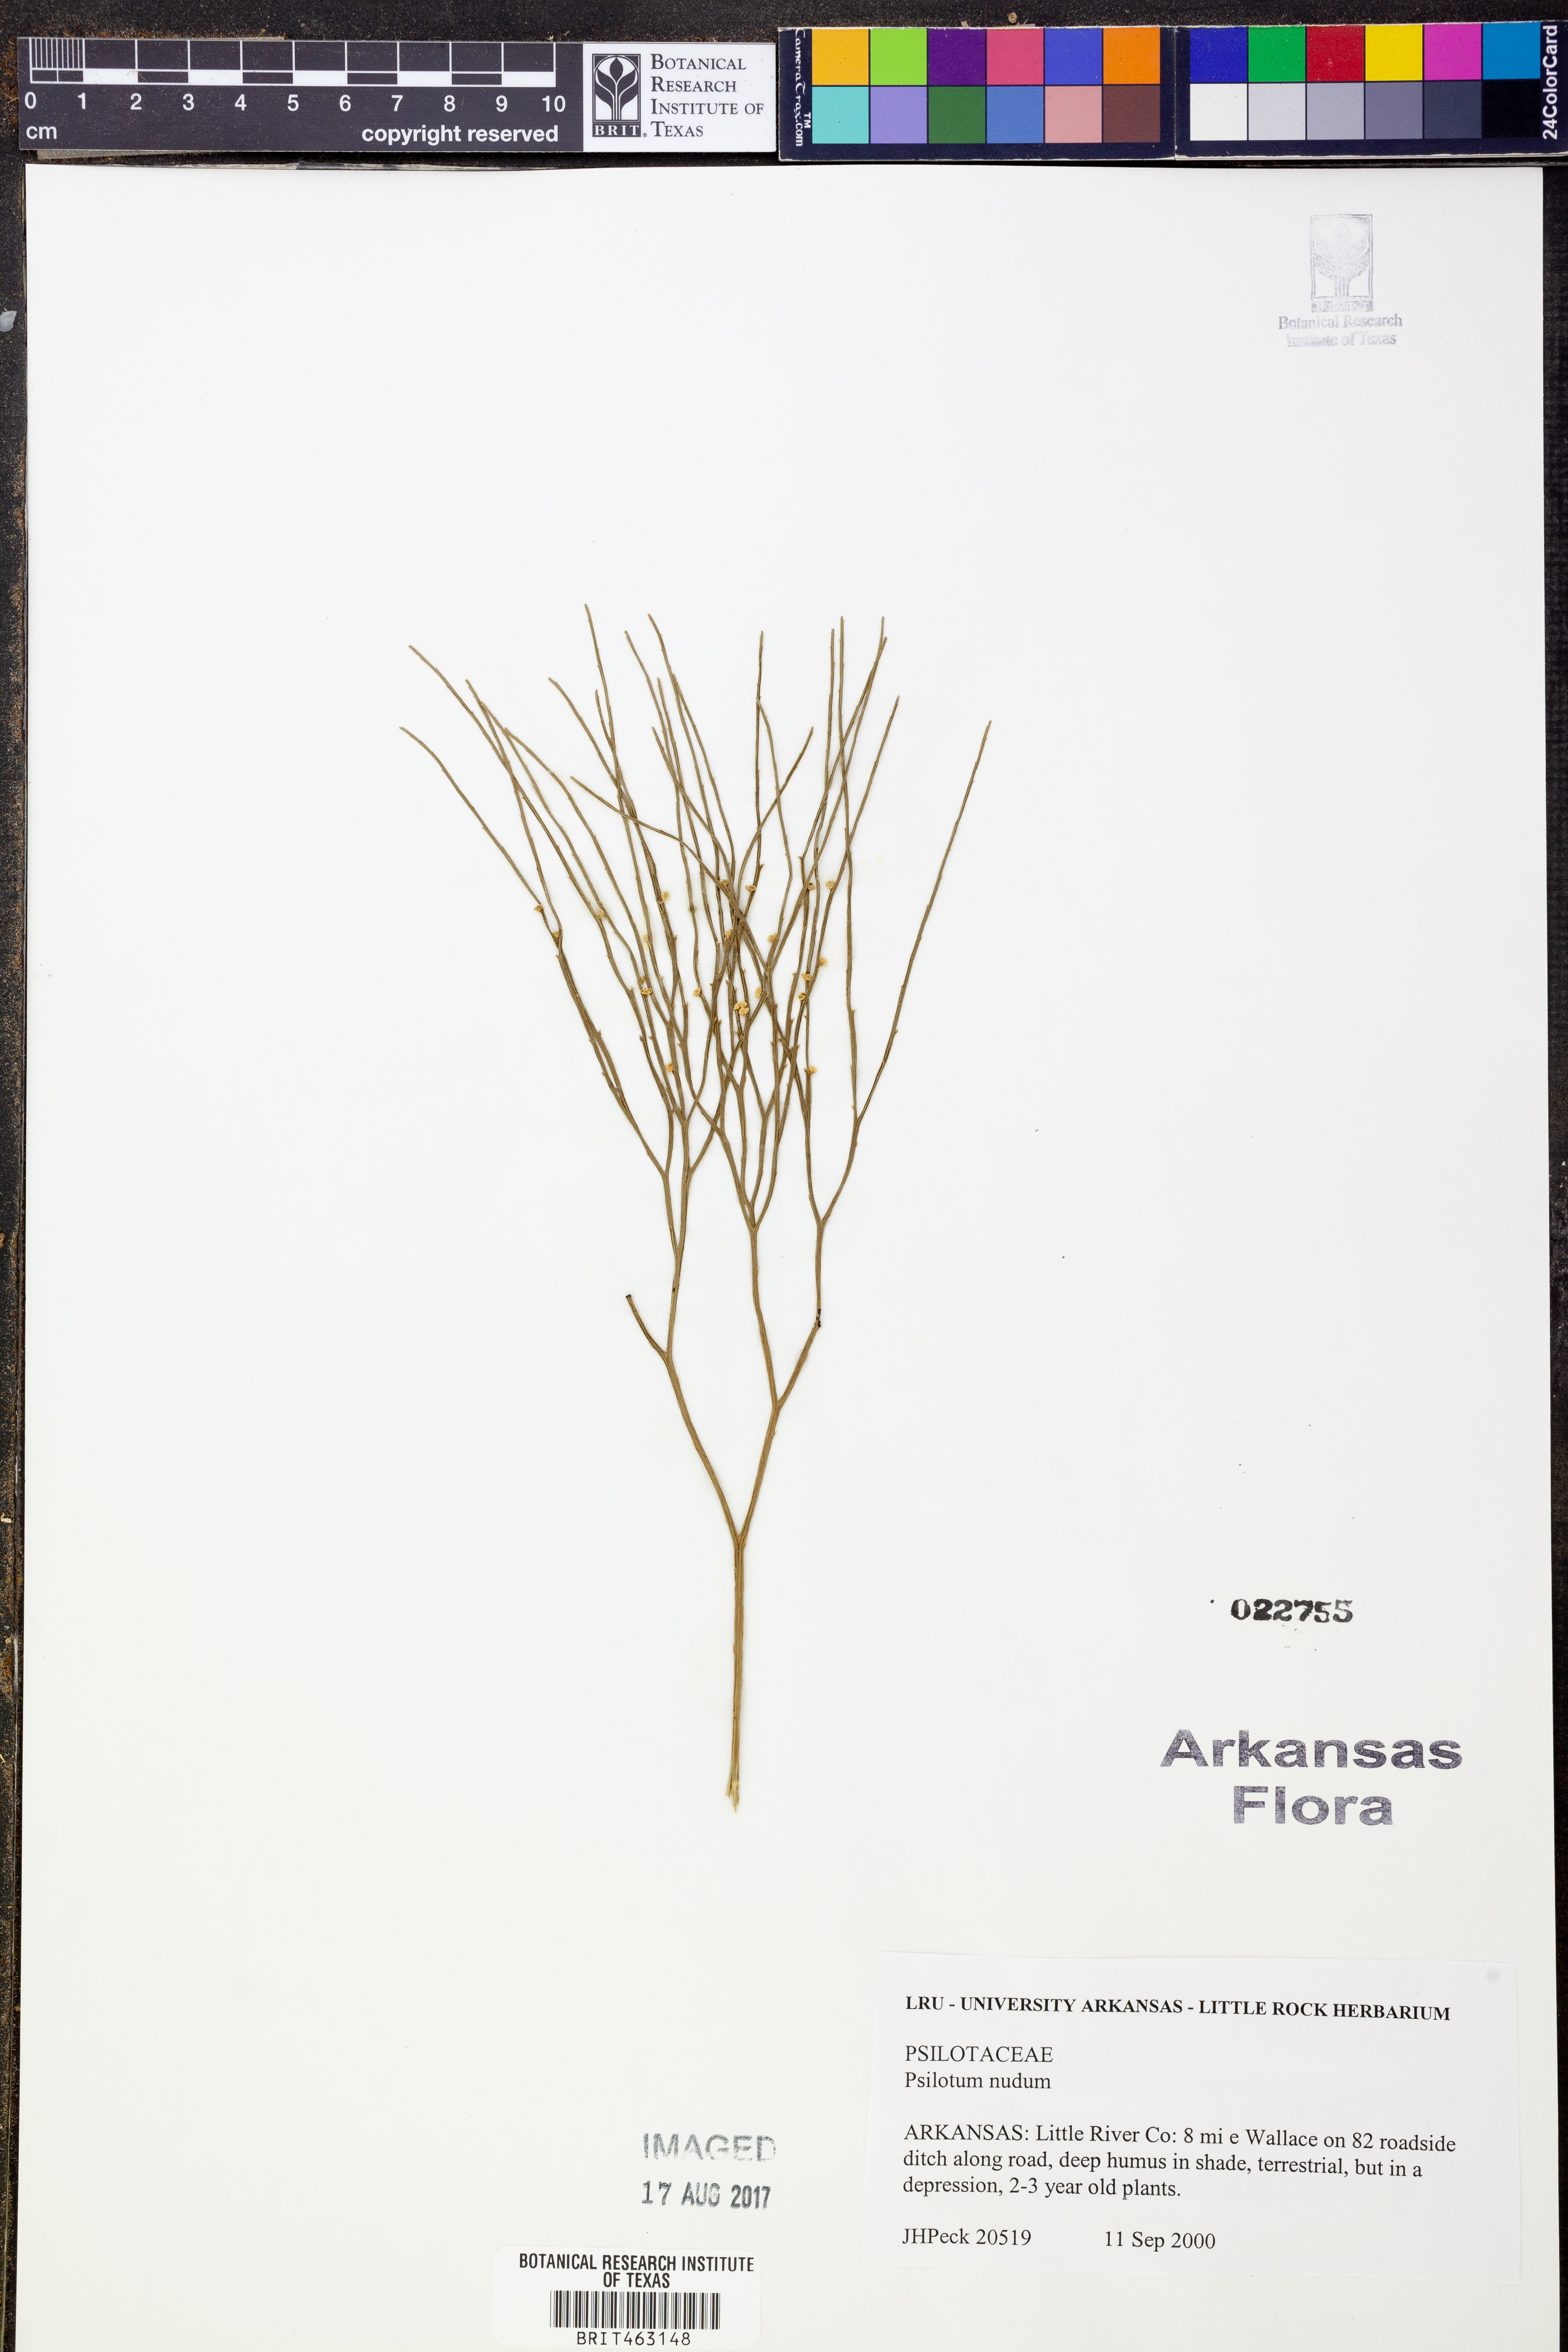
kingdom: Plantae
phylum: Tracheophyta
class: Polypodiopsida
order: Psilotales
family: Psilotaceae
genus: Psilotum
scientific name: Psilotum nudum
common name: Skeleton fork fern
